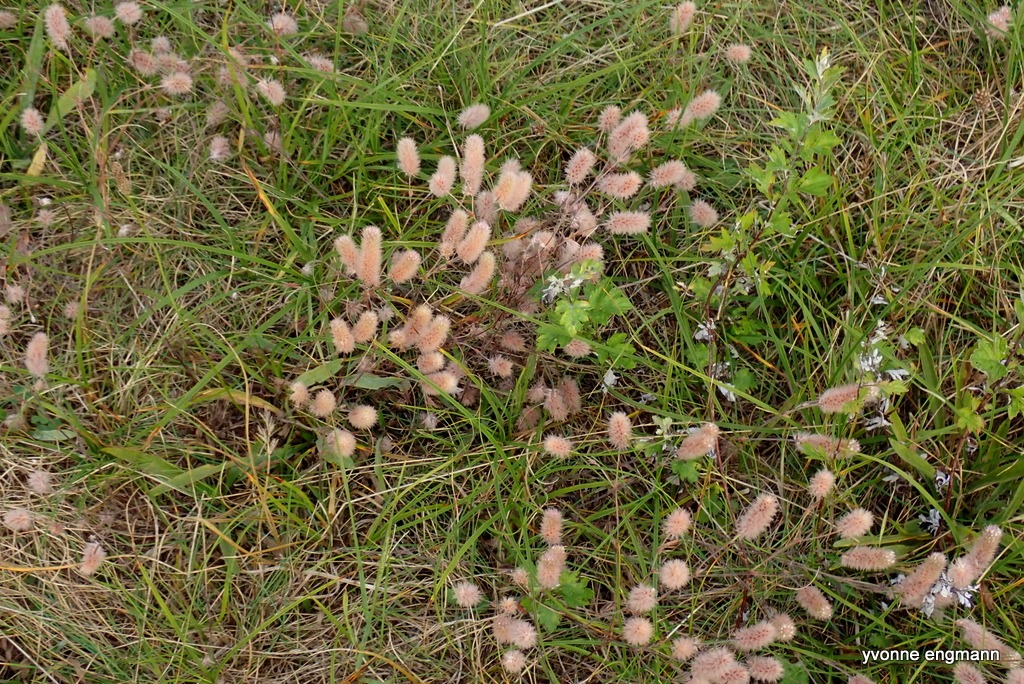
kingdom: Plantae
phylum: Tracheophyta
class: Magnoliopsida
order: Fabales
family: Fabaceae
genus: Trifolium
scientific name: Trifolium arvense
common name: Hare-kløver
